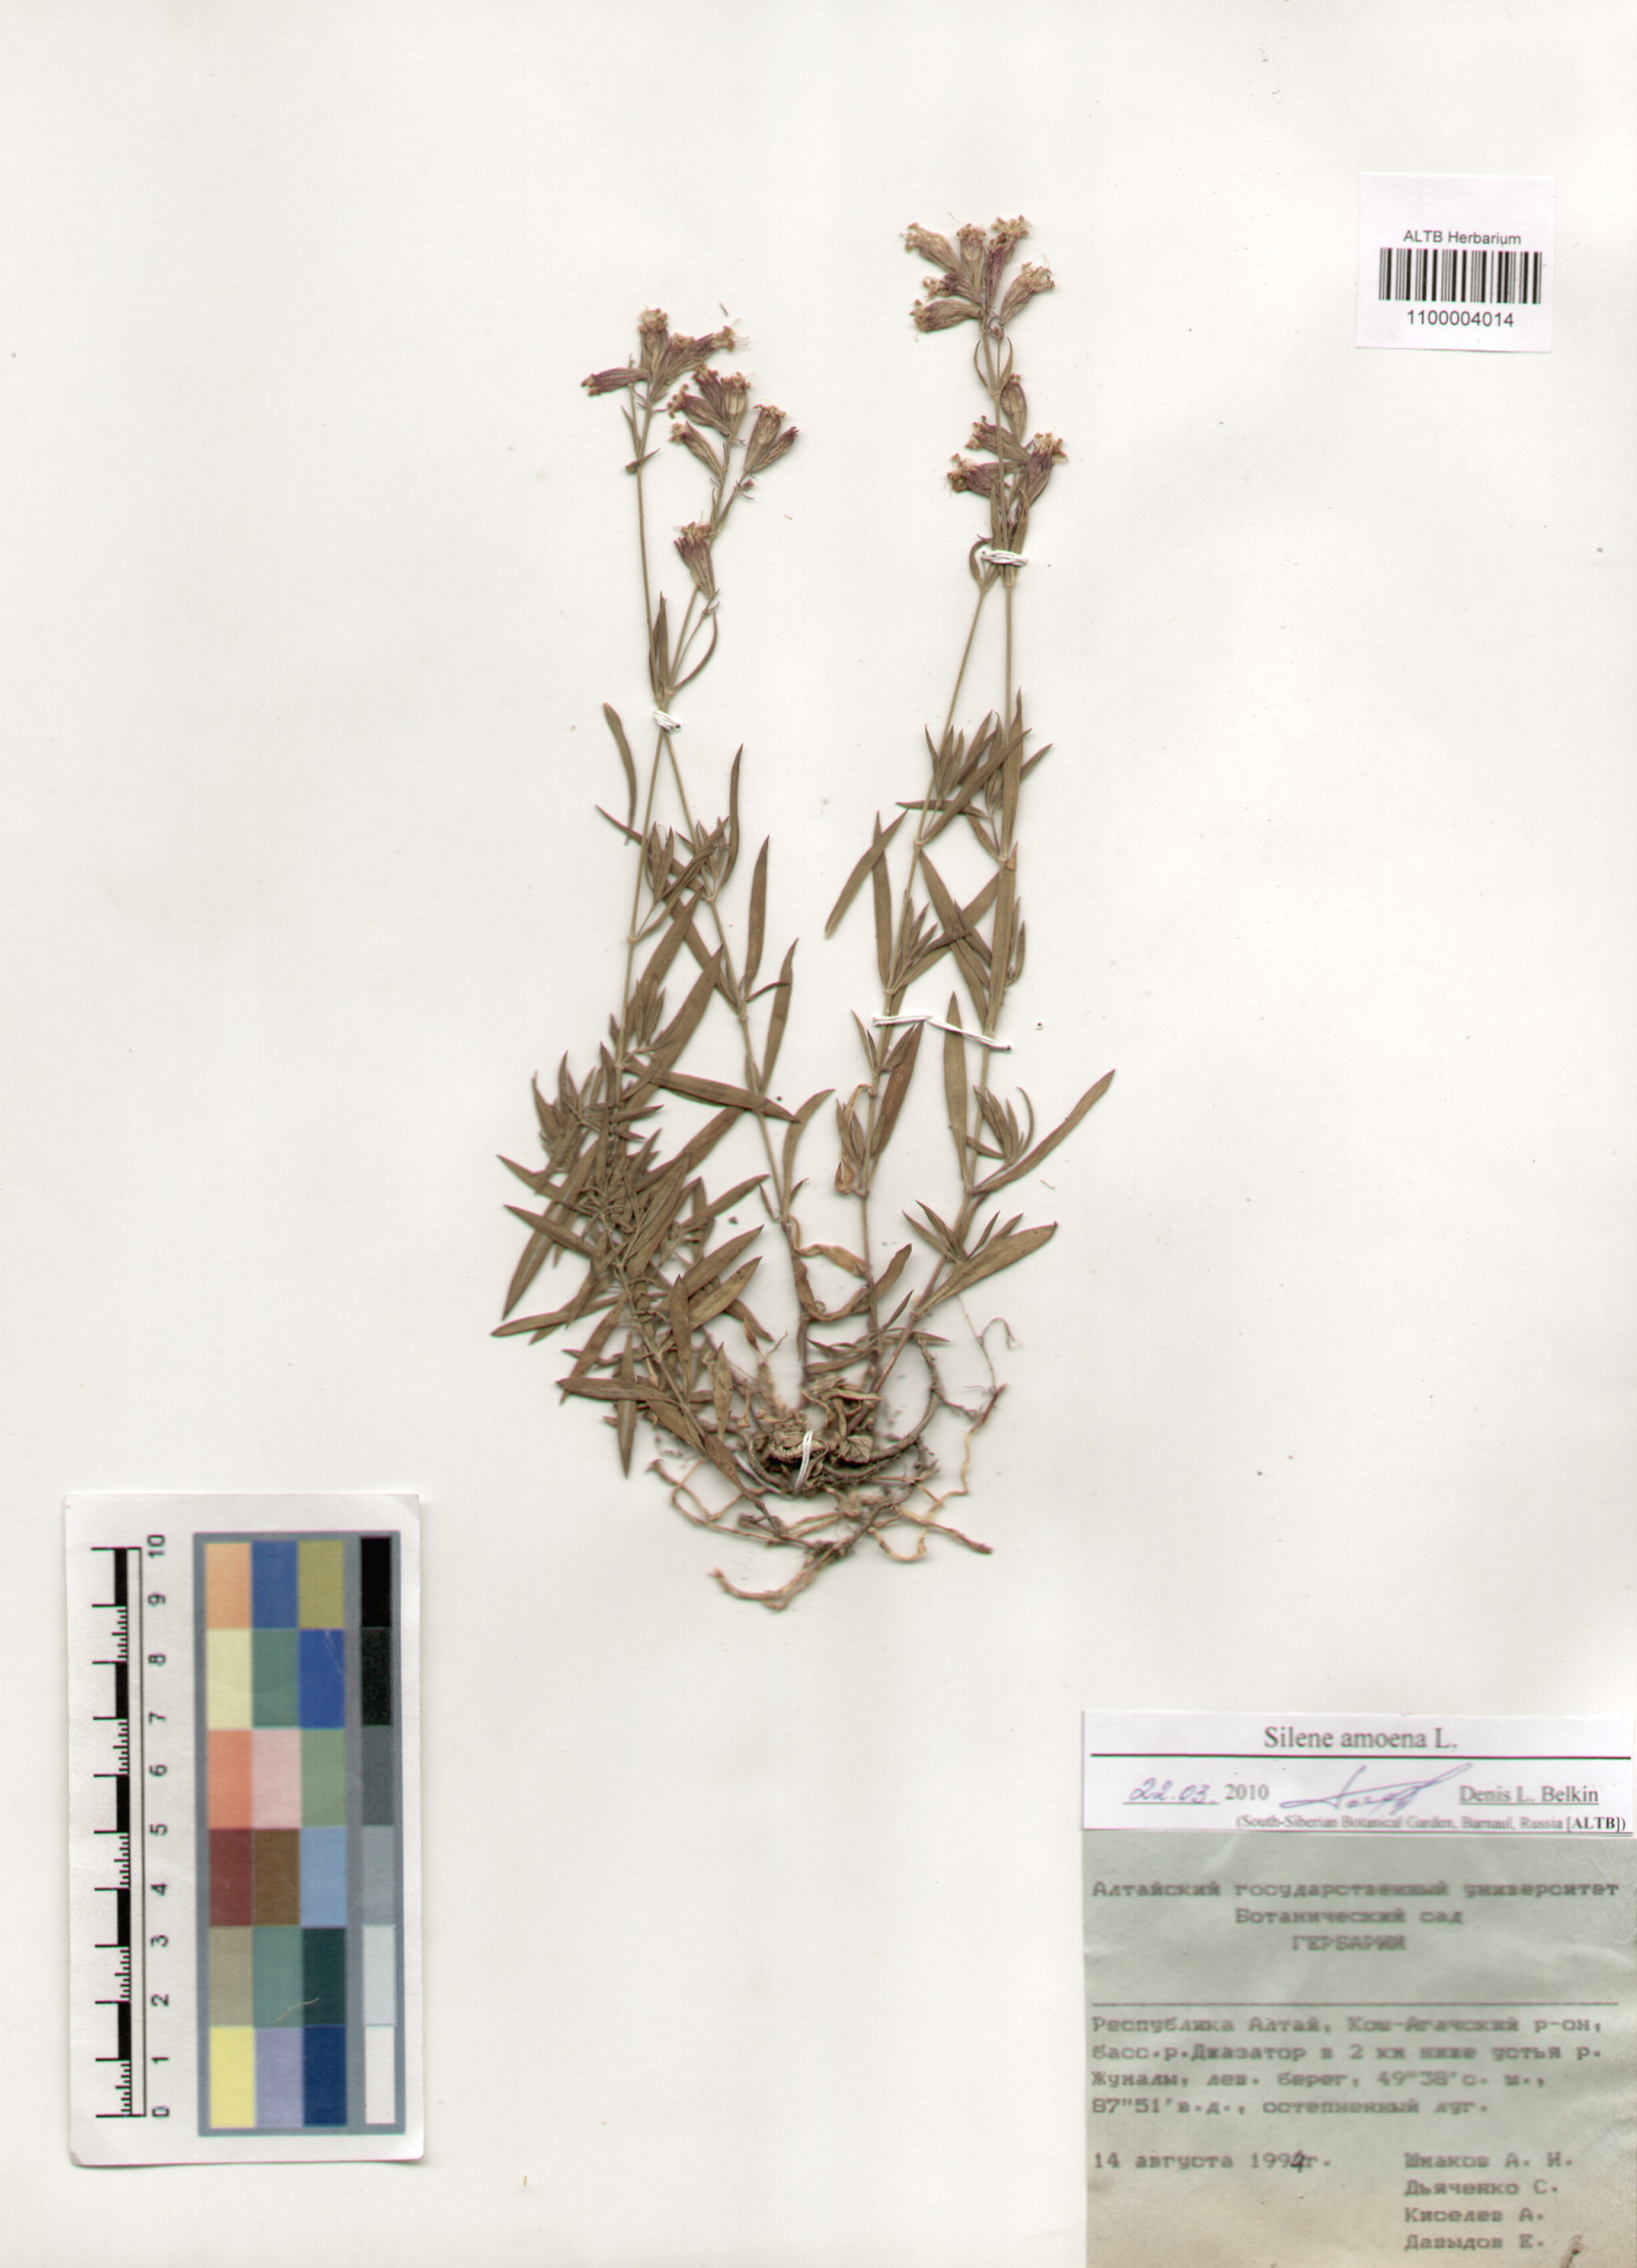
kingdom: Plantae
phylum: Tracheophyta
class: Magnoliopsida
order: Caryophyllales
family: Caryophyllaceae
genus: Silene
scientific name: Silene amoena
